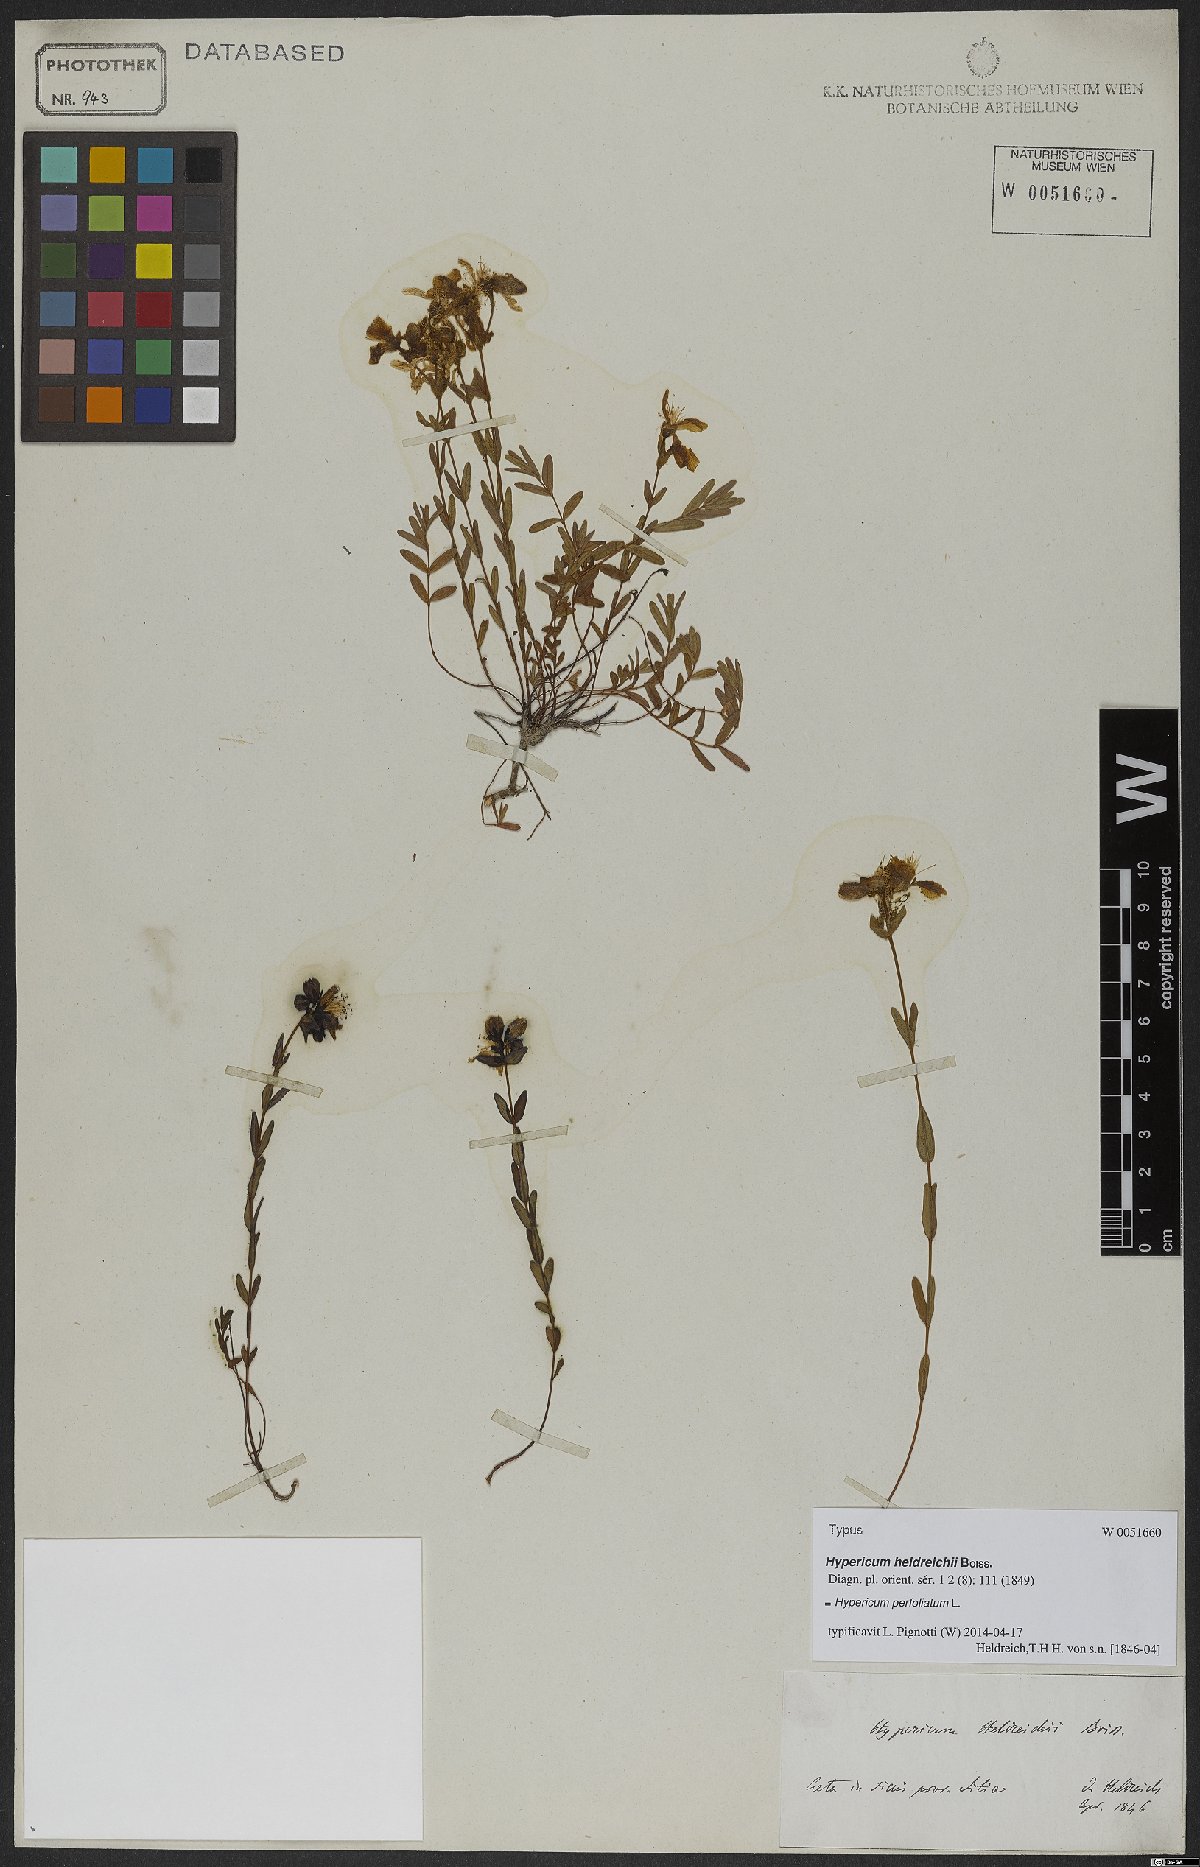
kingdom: Plantae
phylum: Tracheophyta
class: Magnoliopsida
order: Malpighiales
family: Hypericaceae
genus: Hypericum
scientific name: Hypericum perfoliatum
